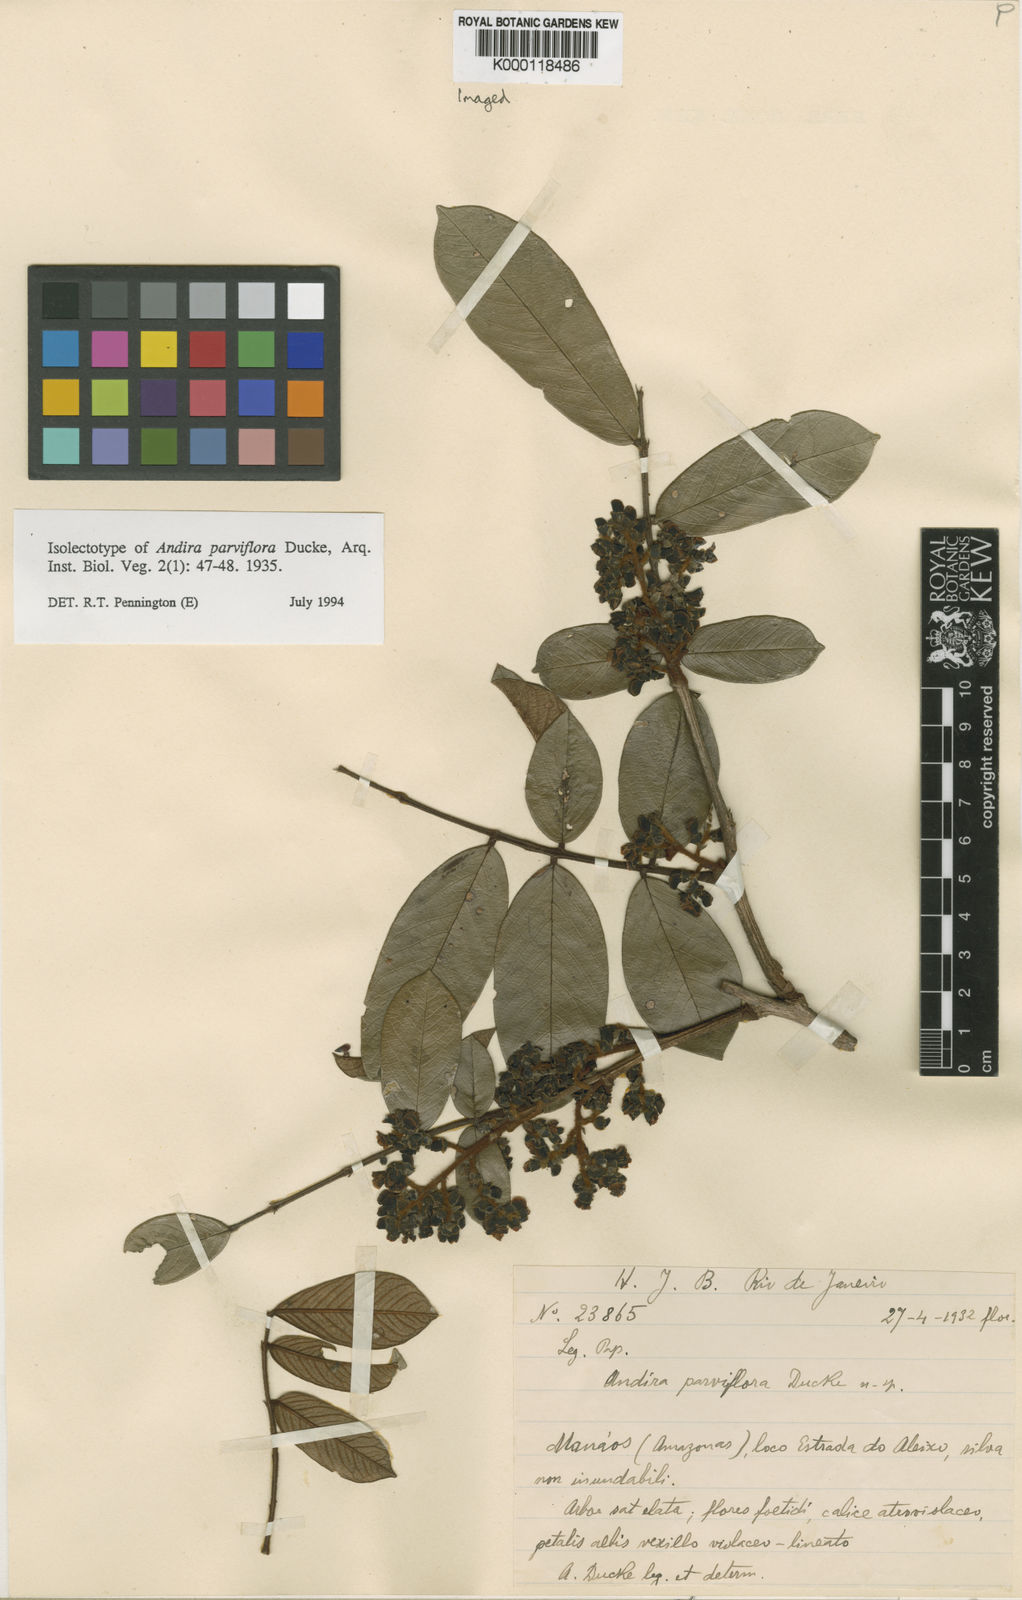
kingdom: Plantae
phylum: Tracheophyta
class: Magnoliopsida
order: Fabales
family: Fabaceae
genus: Andira
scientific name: Andira parviflora
